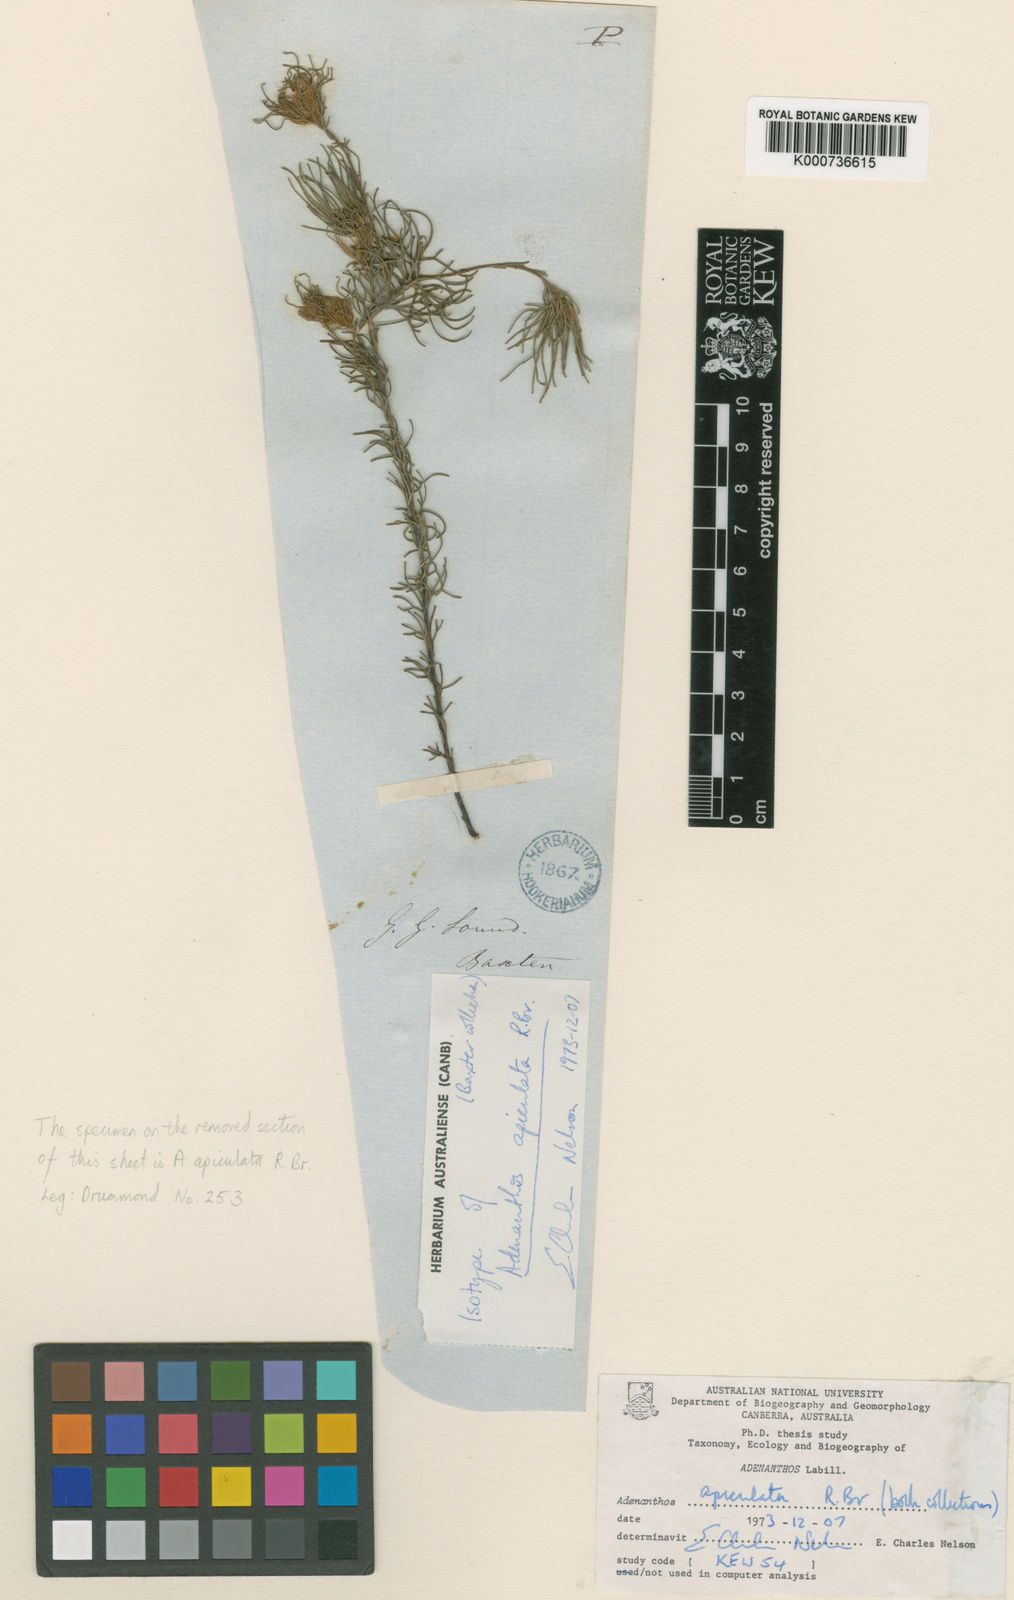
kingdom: Plantae
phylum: Tracheophyta
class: Magnoliopsida
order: Proteales
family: Proteaceae
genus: Adenanthos
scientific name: Adenanthos apiculatus
